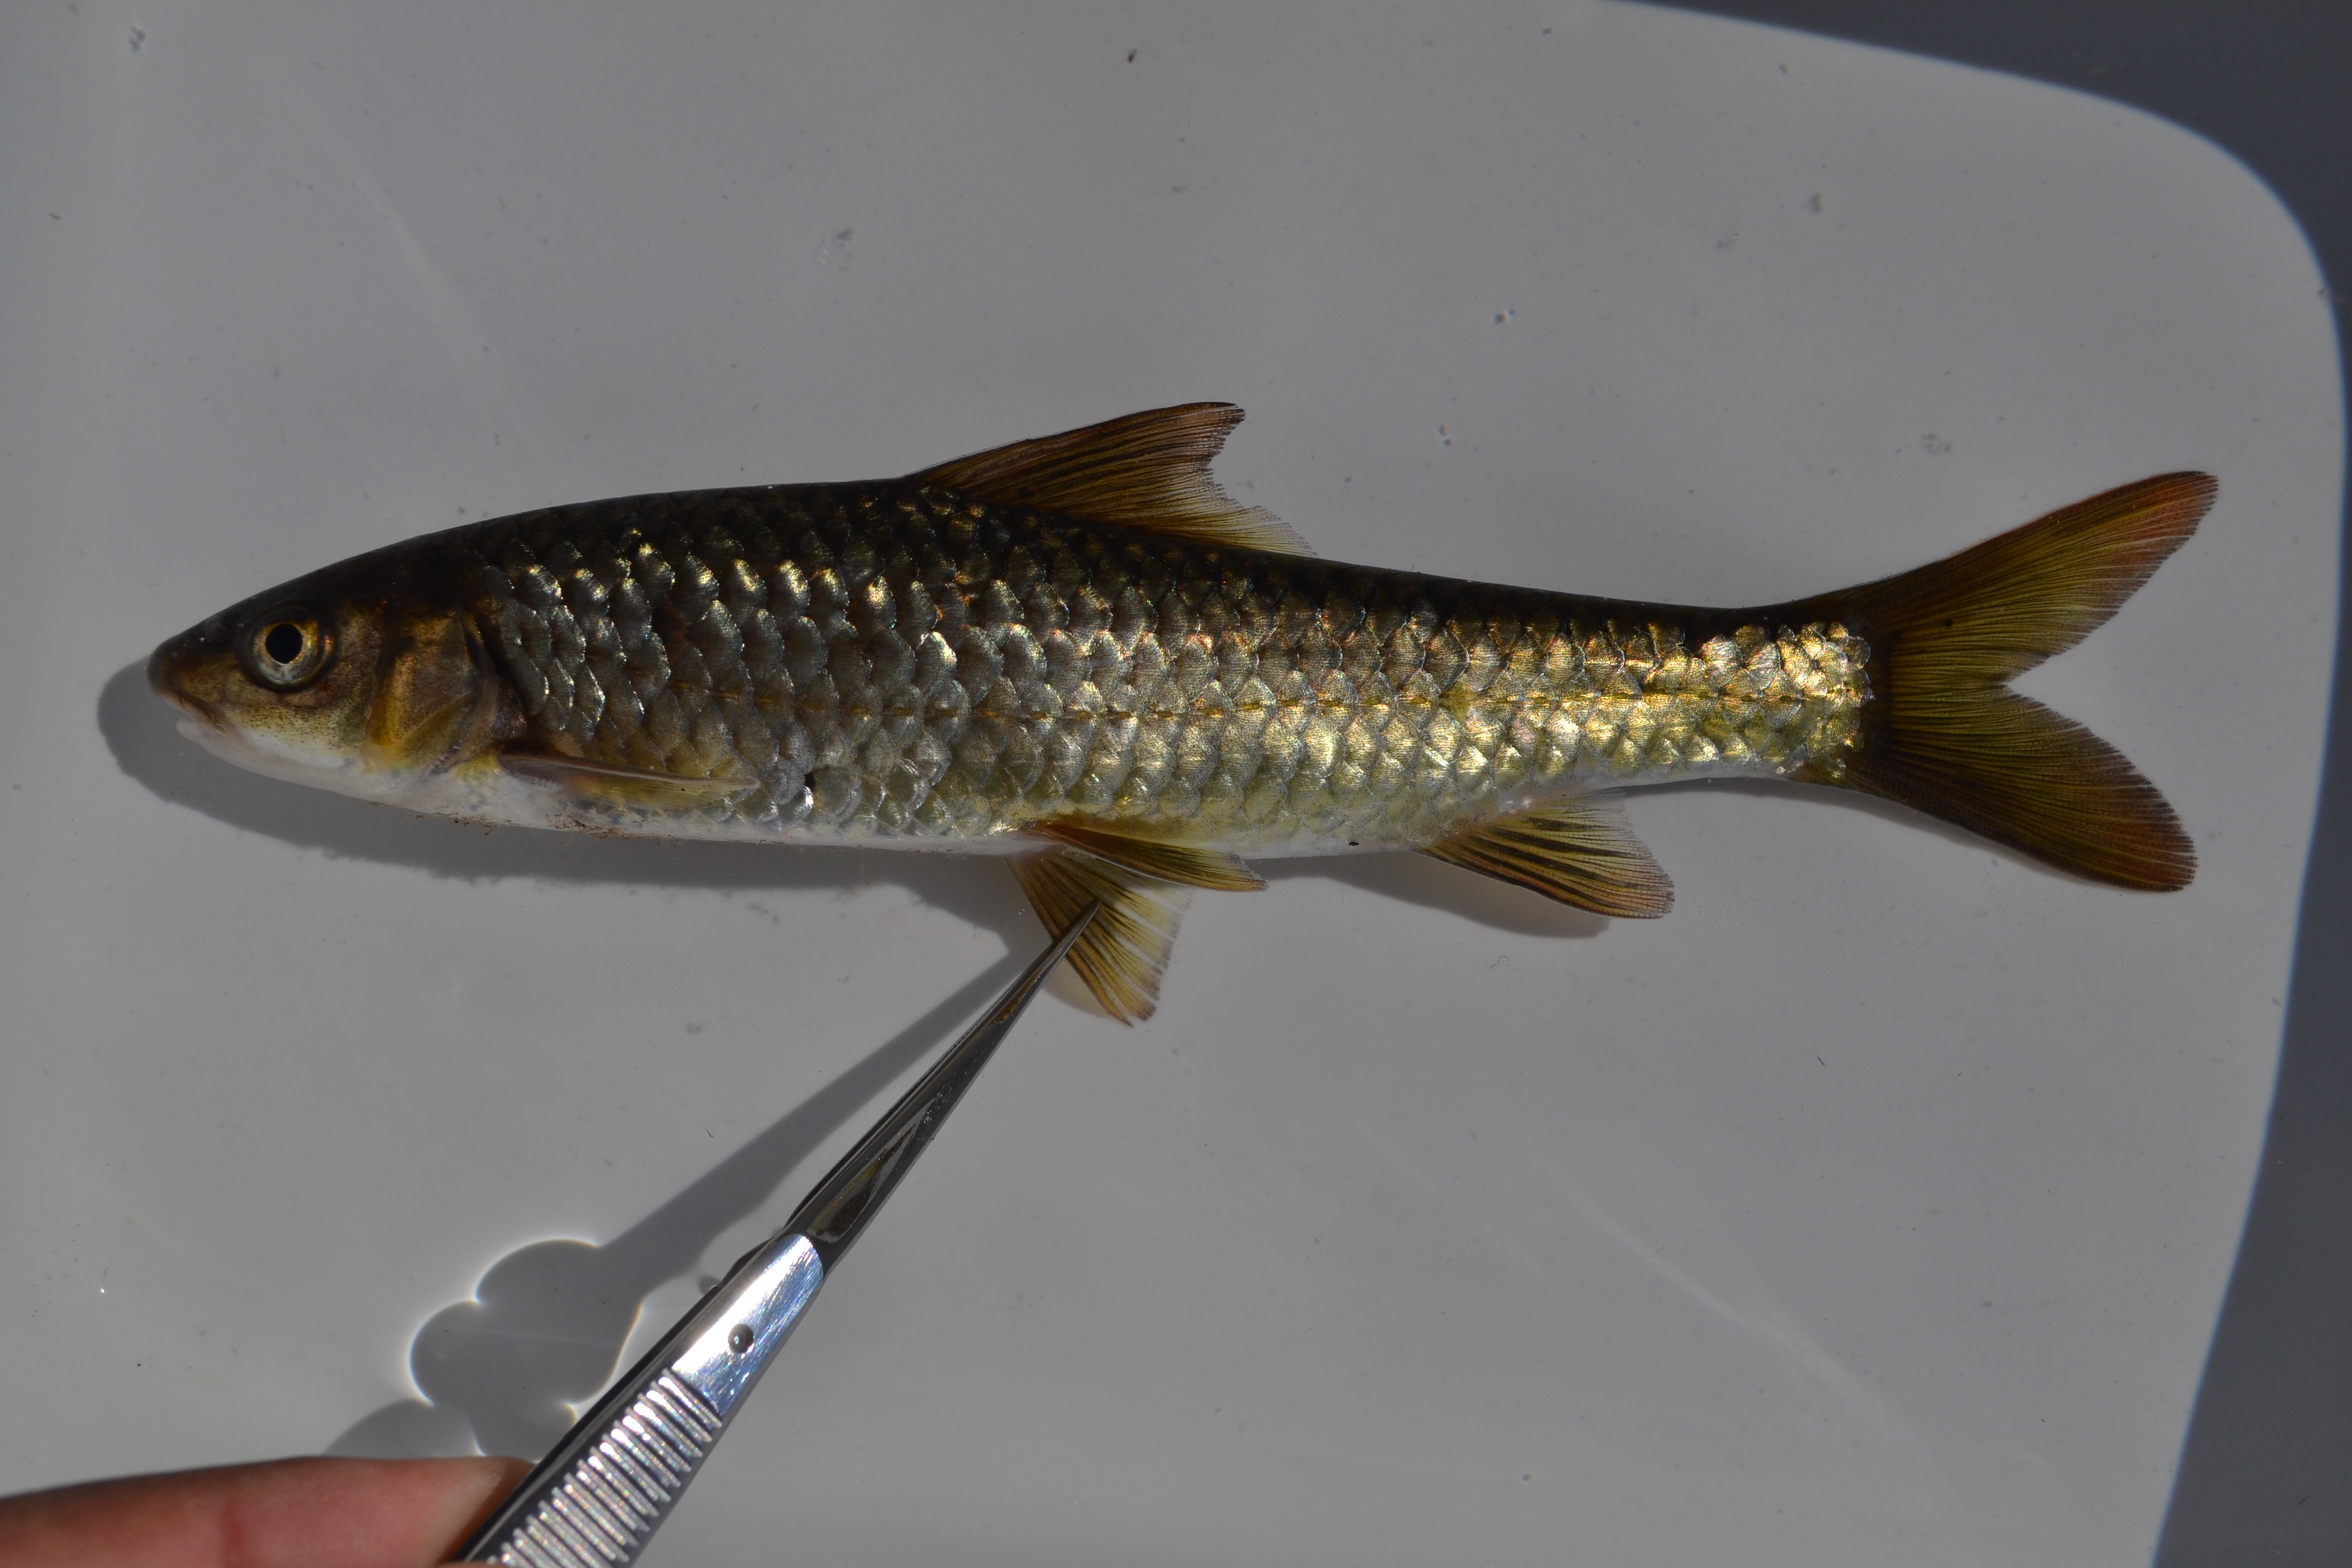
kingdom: Animalia
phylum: Chordata
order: Cypriniformes
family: Cyprinidae
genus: Labeobarbus
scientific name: Labeobarbus marequensis
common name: Largescale yellowfish
